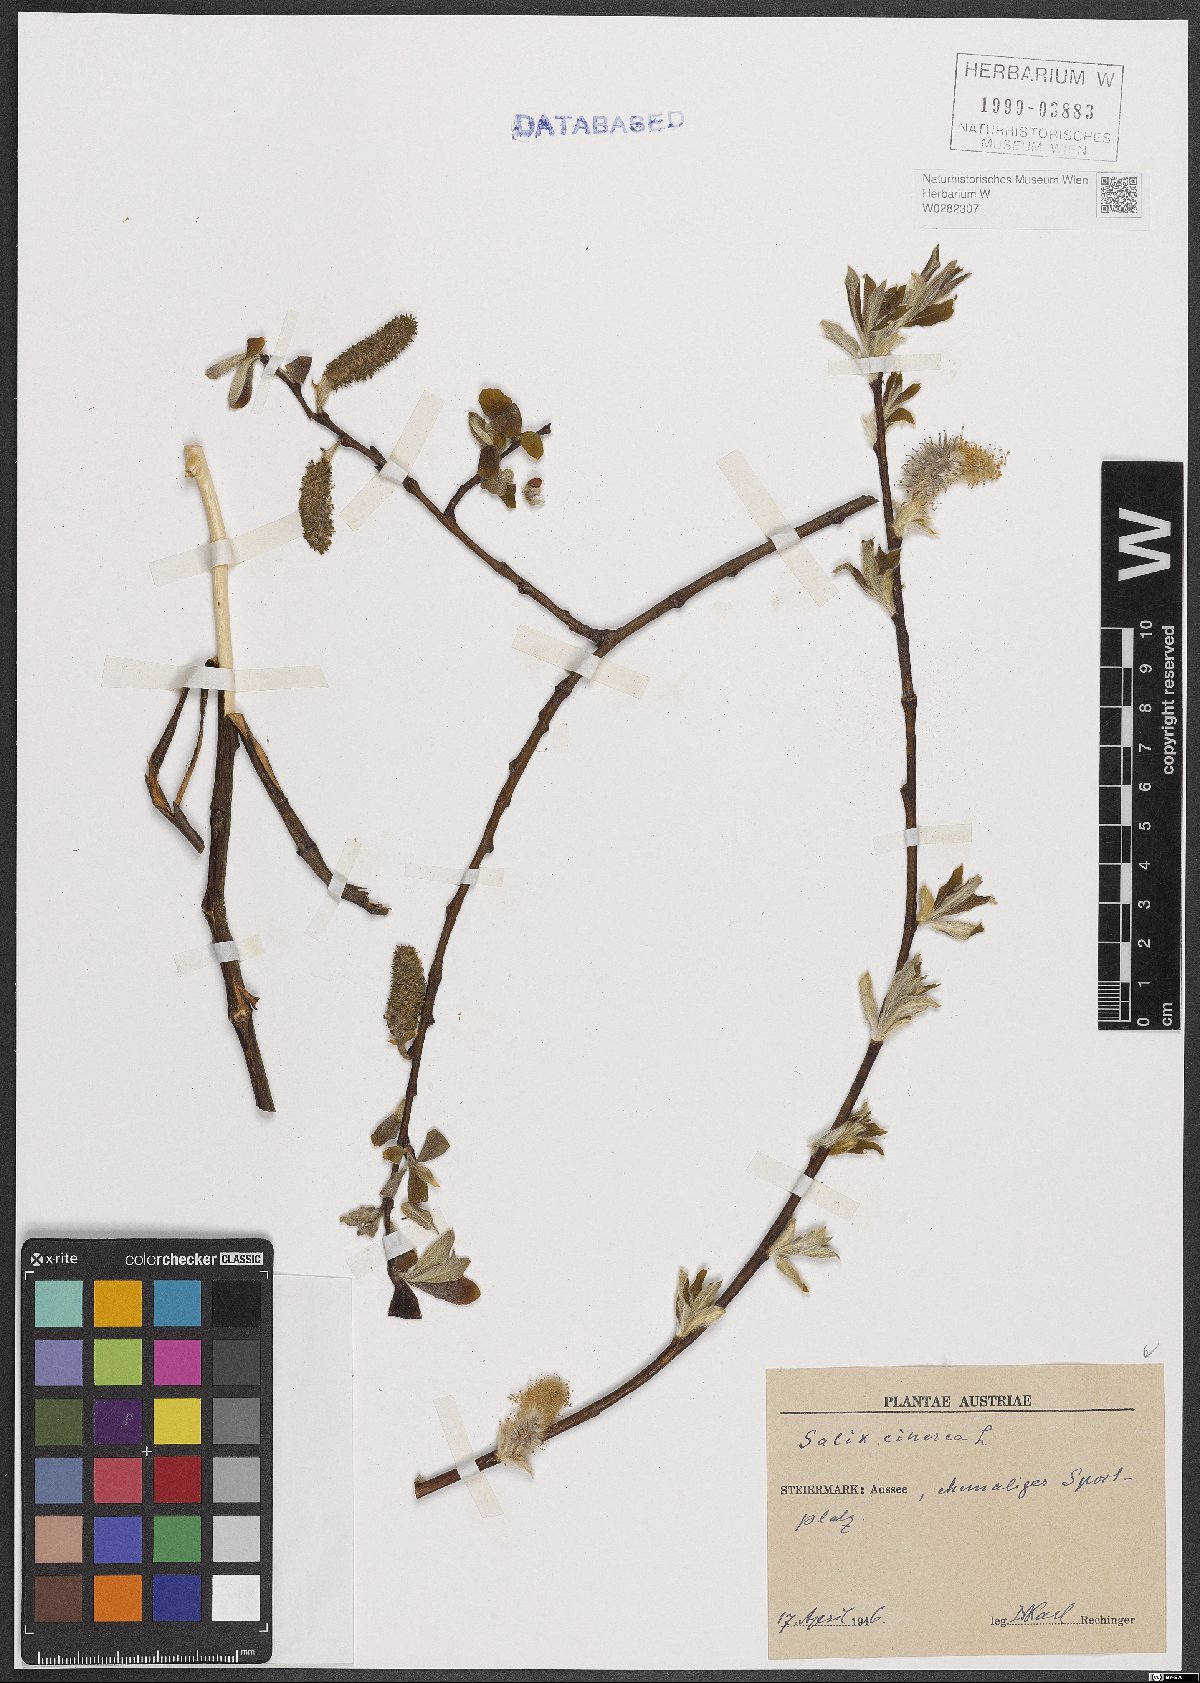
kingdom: Plantae
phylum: Tracheophyta
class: Magnoliopsida
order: Malpighiales
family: Salicaceae
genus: Salix
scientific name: Salix cinerea
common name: Common sallow
